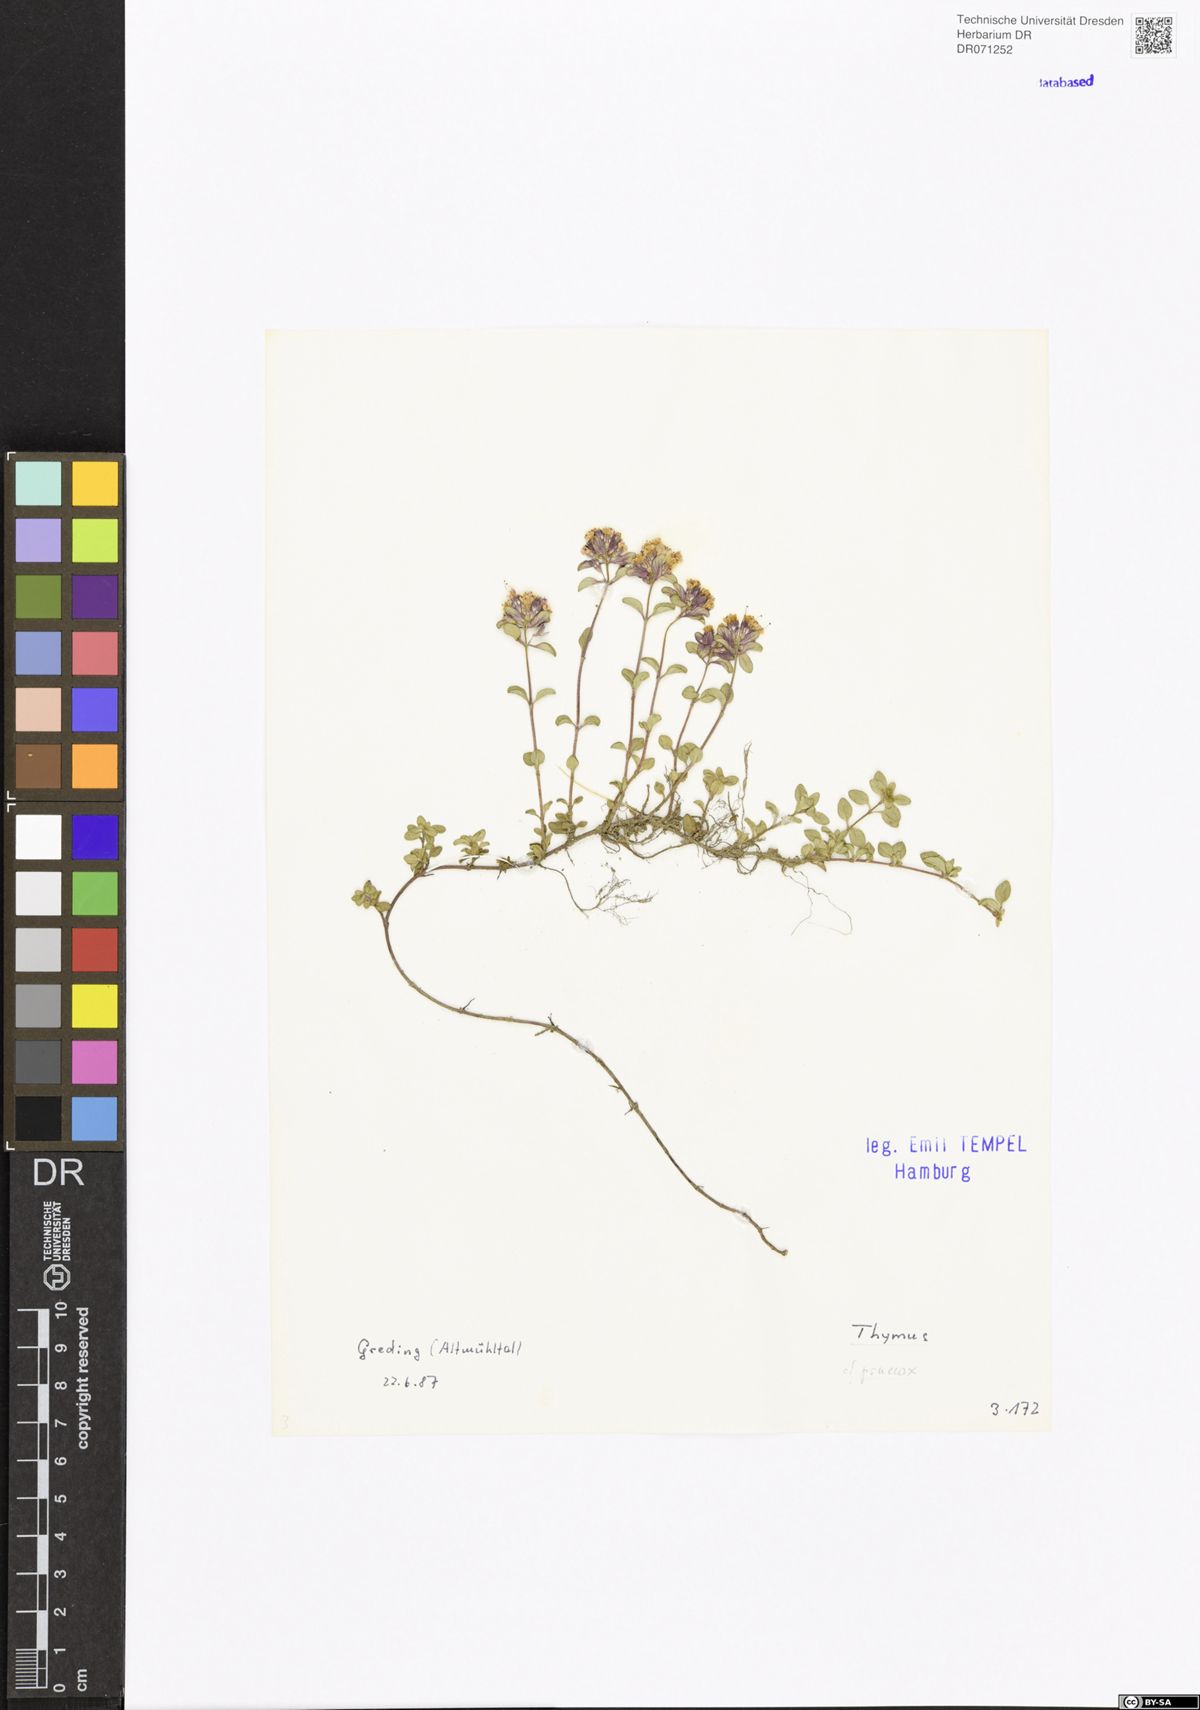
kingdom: Plantae
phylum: Tracheophyta
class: Magnoliopsida
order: Lamiales
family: Lamiaceae
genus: Thymus
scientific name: Thymus praecox
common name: Wild thyme
